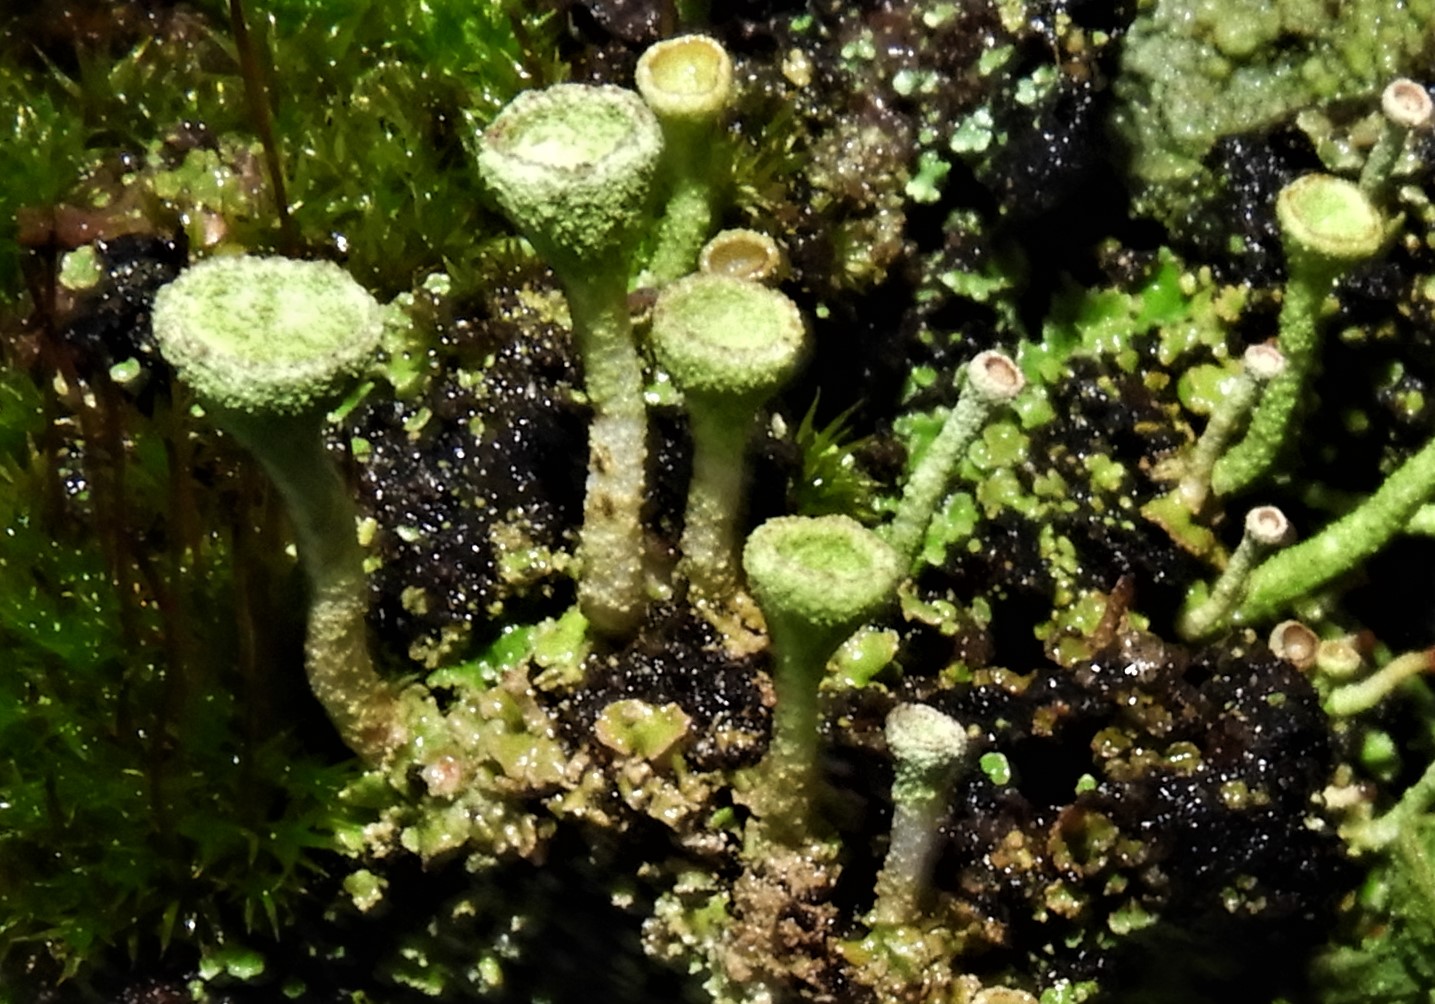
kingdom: Fungi
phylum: Ascomycota
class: Lecanoromycetes
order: Lecanorales
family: Cladoniaceae
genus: Cladonia
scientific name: Cladonia
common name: brungrøn bægerlav
